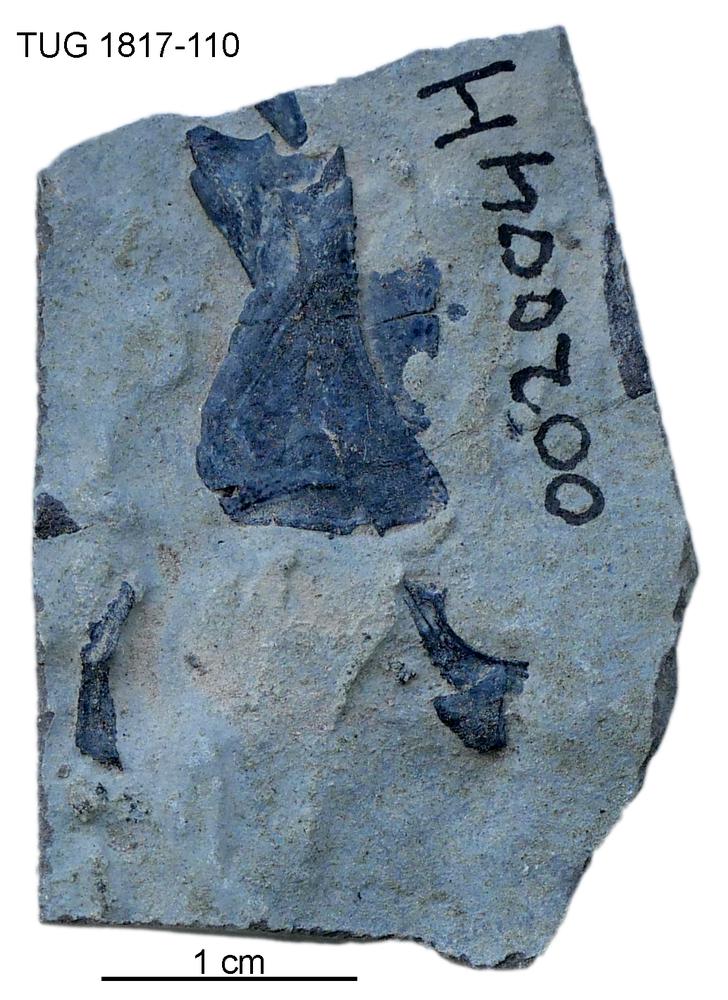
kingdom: Animalia
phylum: Chordata
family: Coccosteidae
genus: Millerosteus
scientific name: Millerosteus minor
